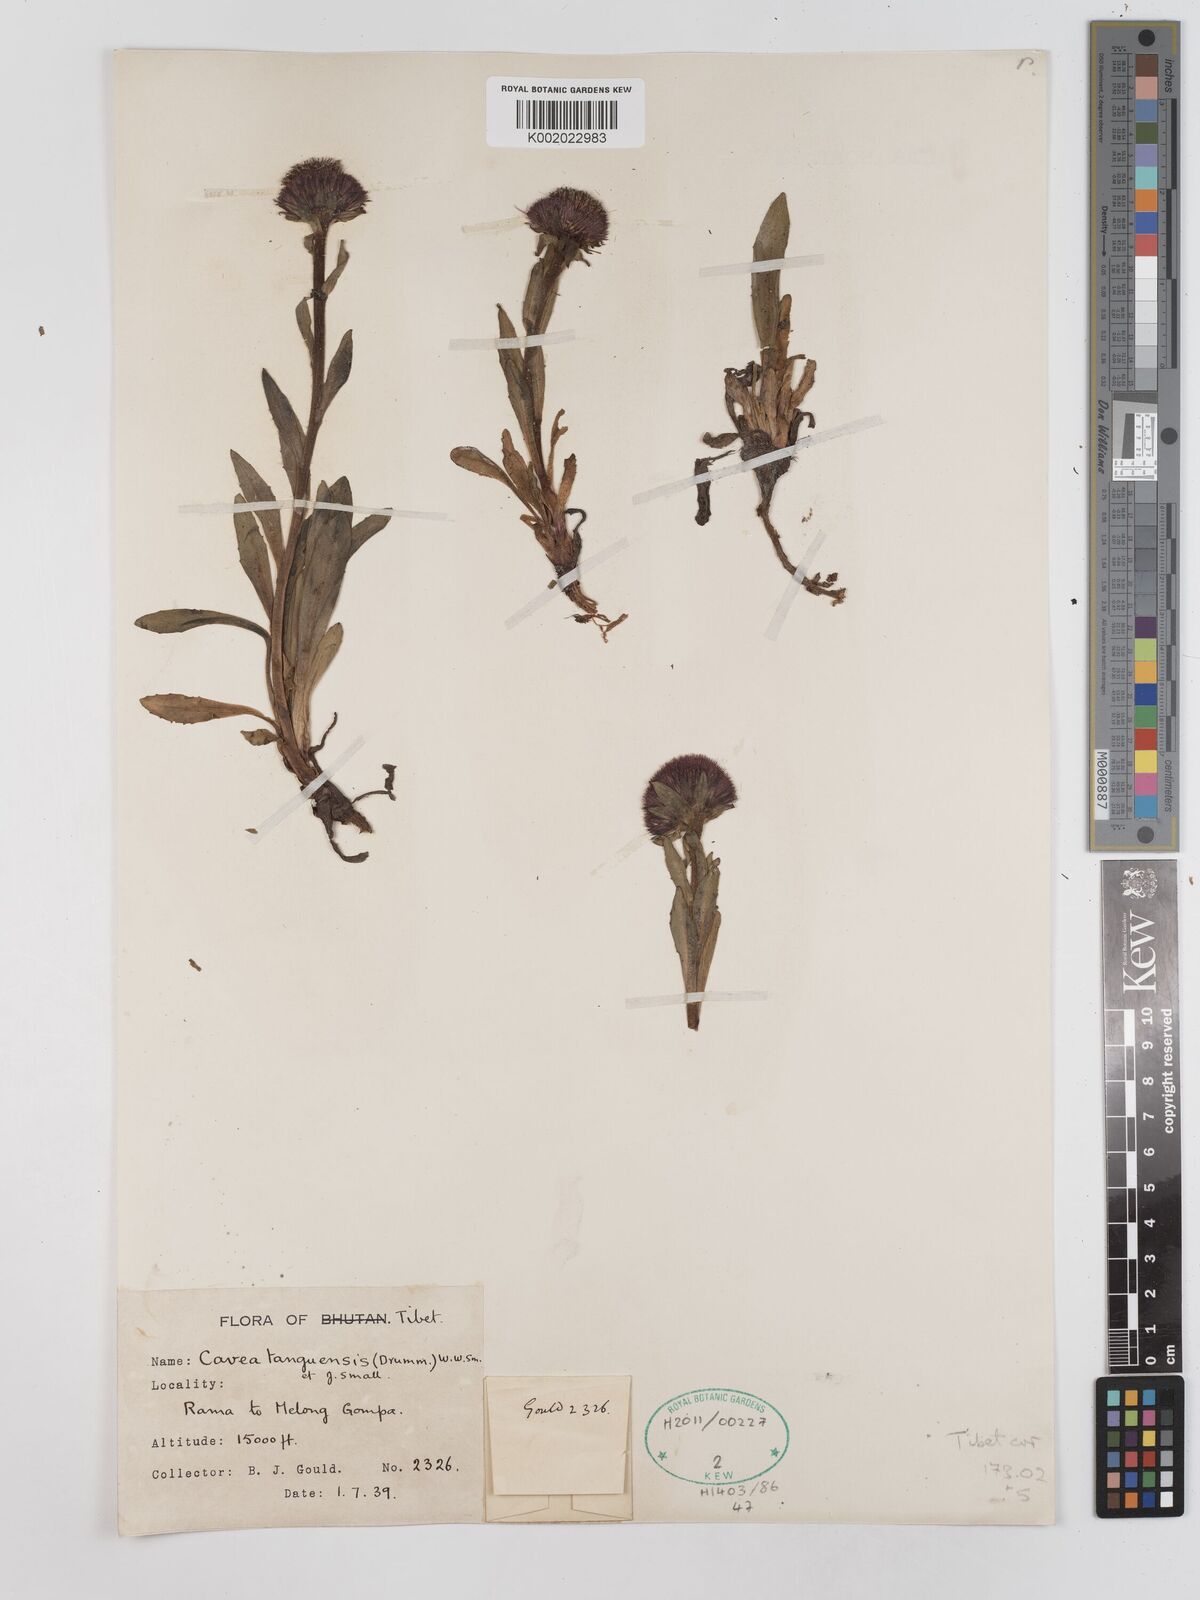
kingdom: Plantae
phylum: Tracheophyta
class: Magnoliopsida
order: Asterales
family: Asteraceae
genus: Cavea
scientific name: Cavea tanguensis
